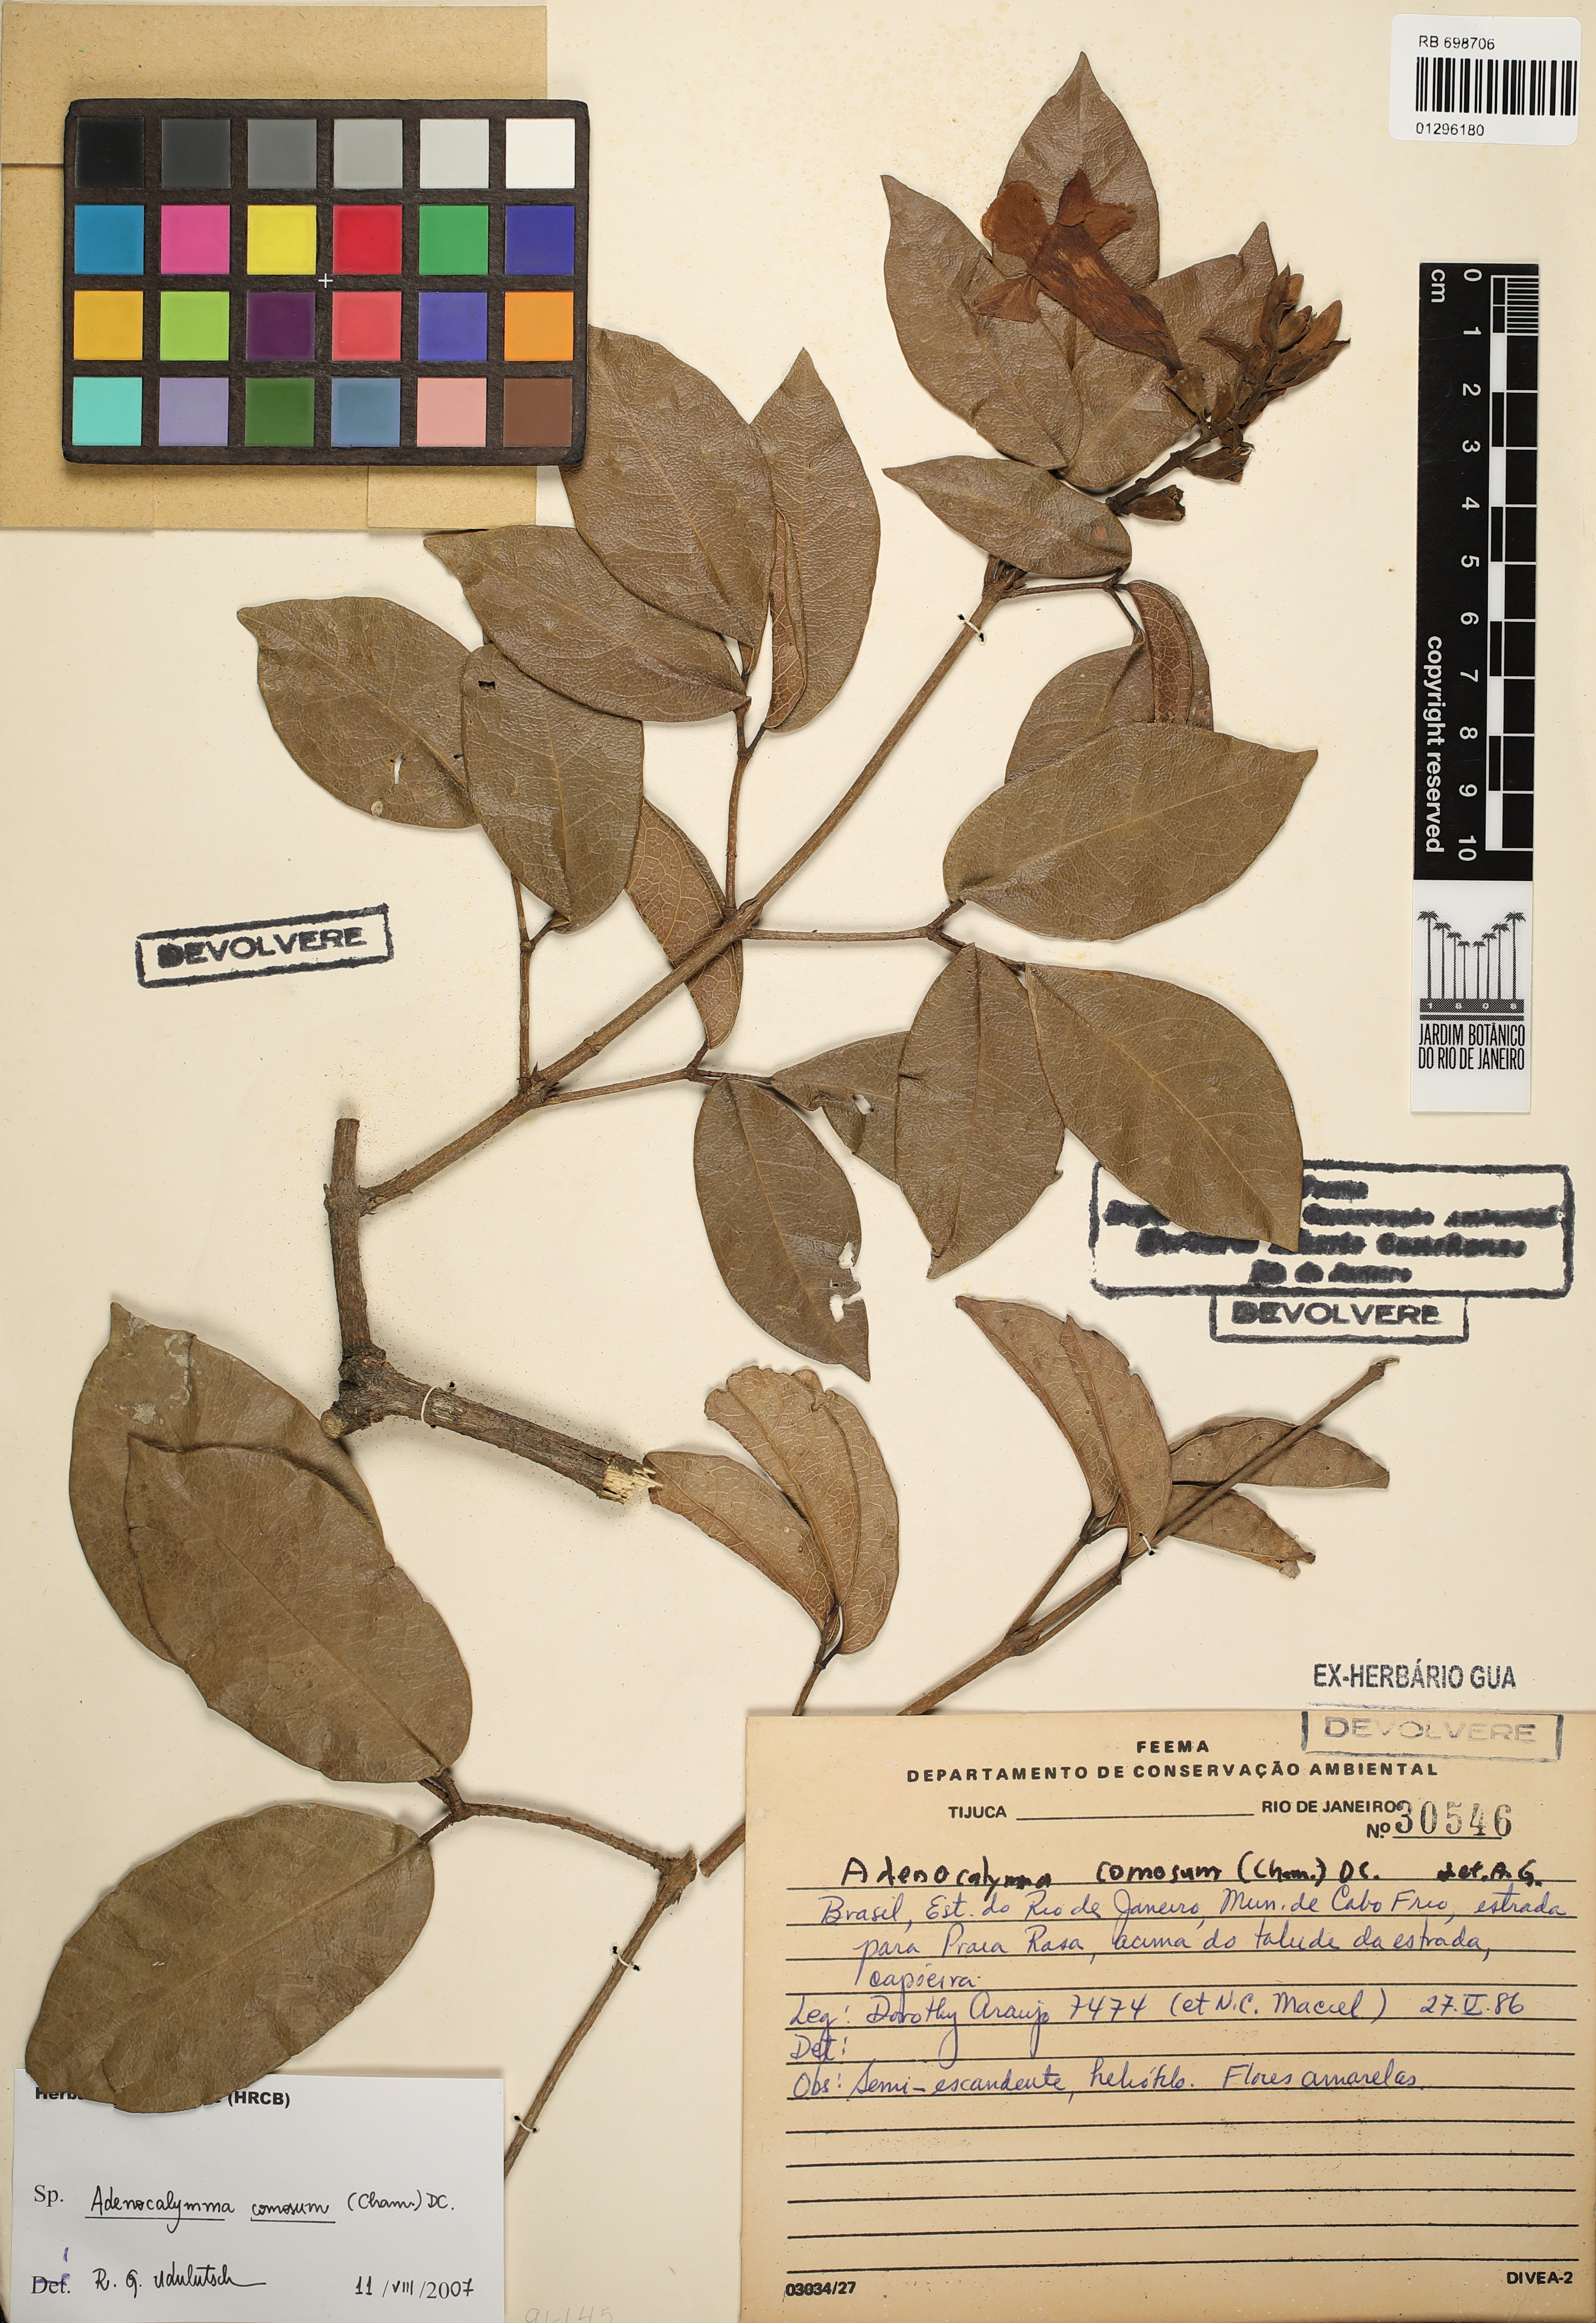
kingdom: Plantae
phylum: Tracheophyta
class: Magnoliopsida
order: Lamiales
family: Bignoniaceae
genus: Adenocalymma
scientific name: Adenocalymma acutissimum
